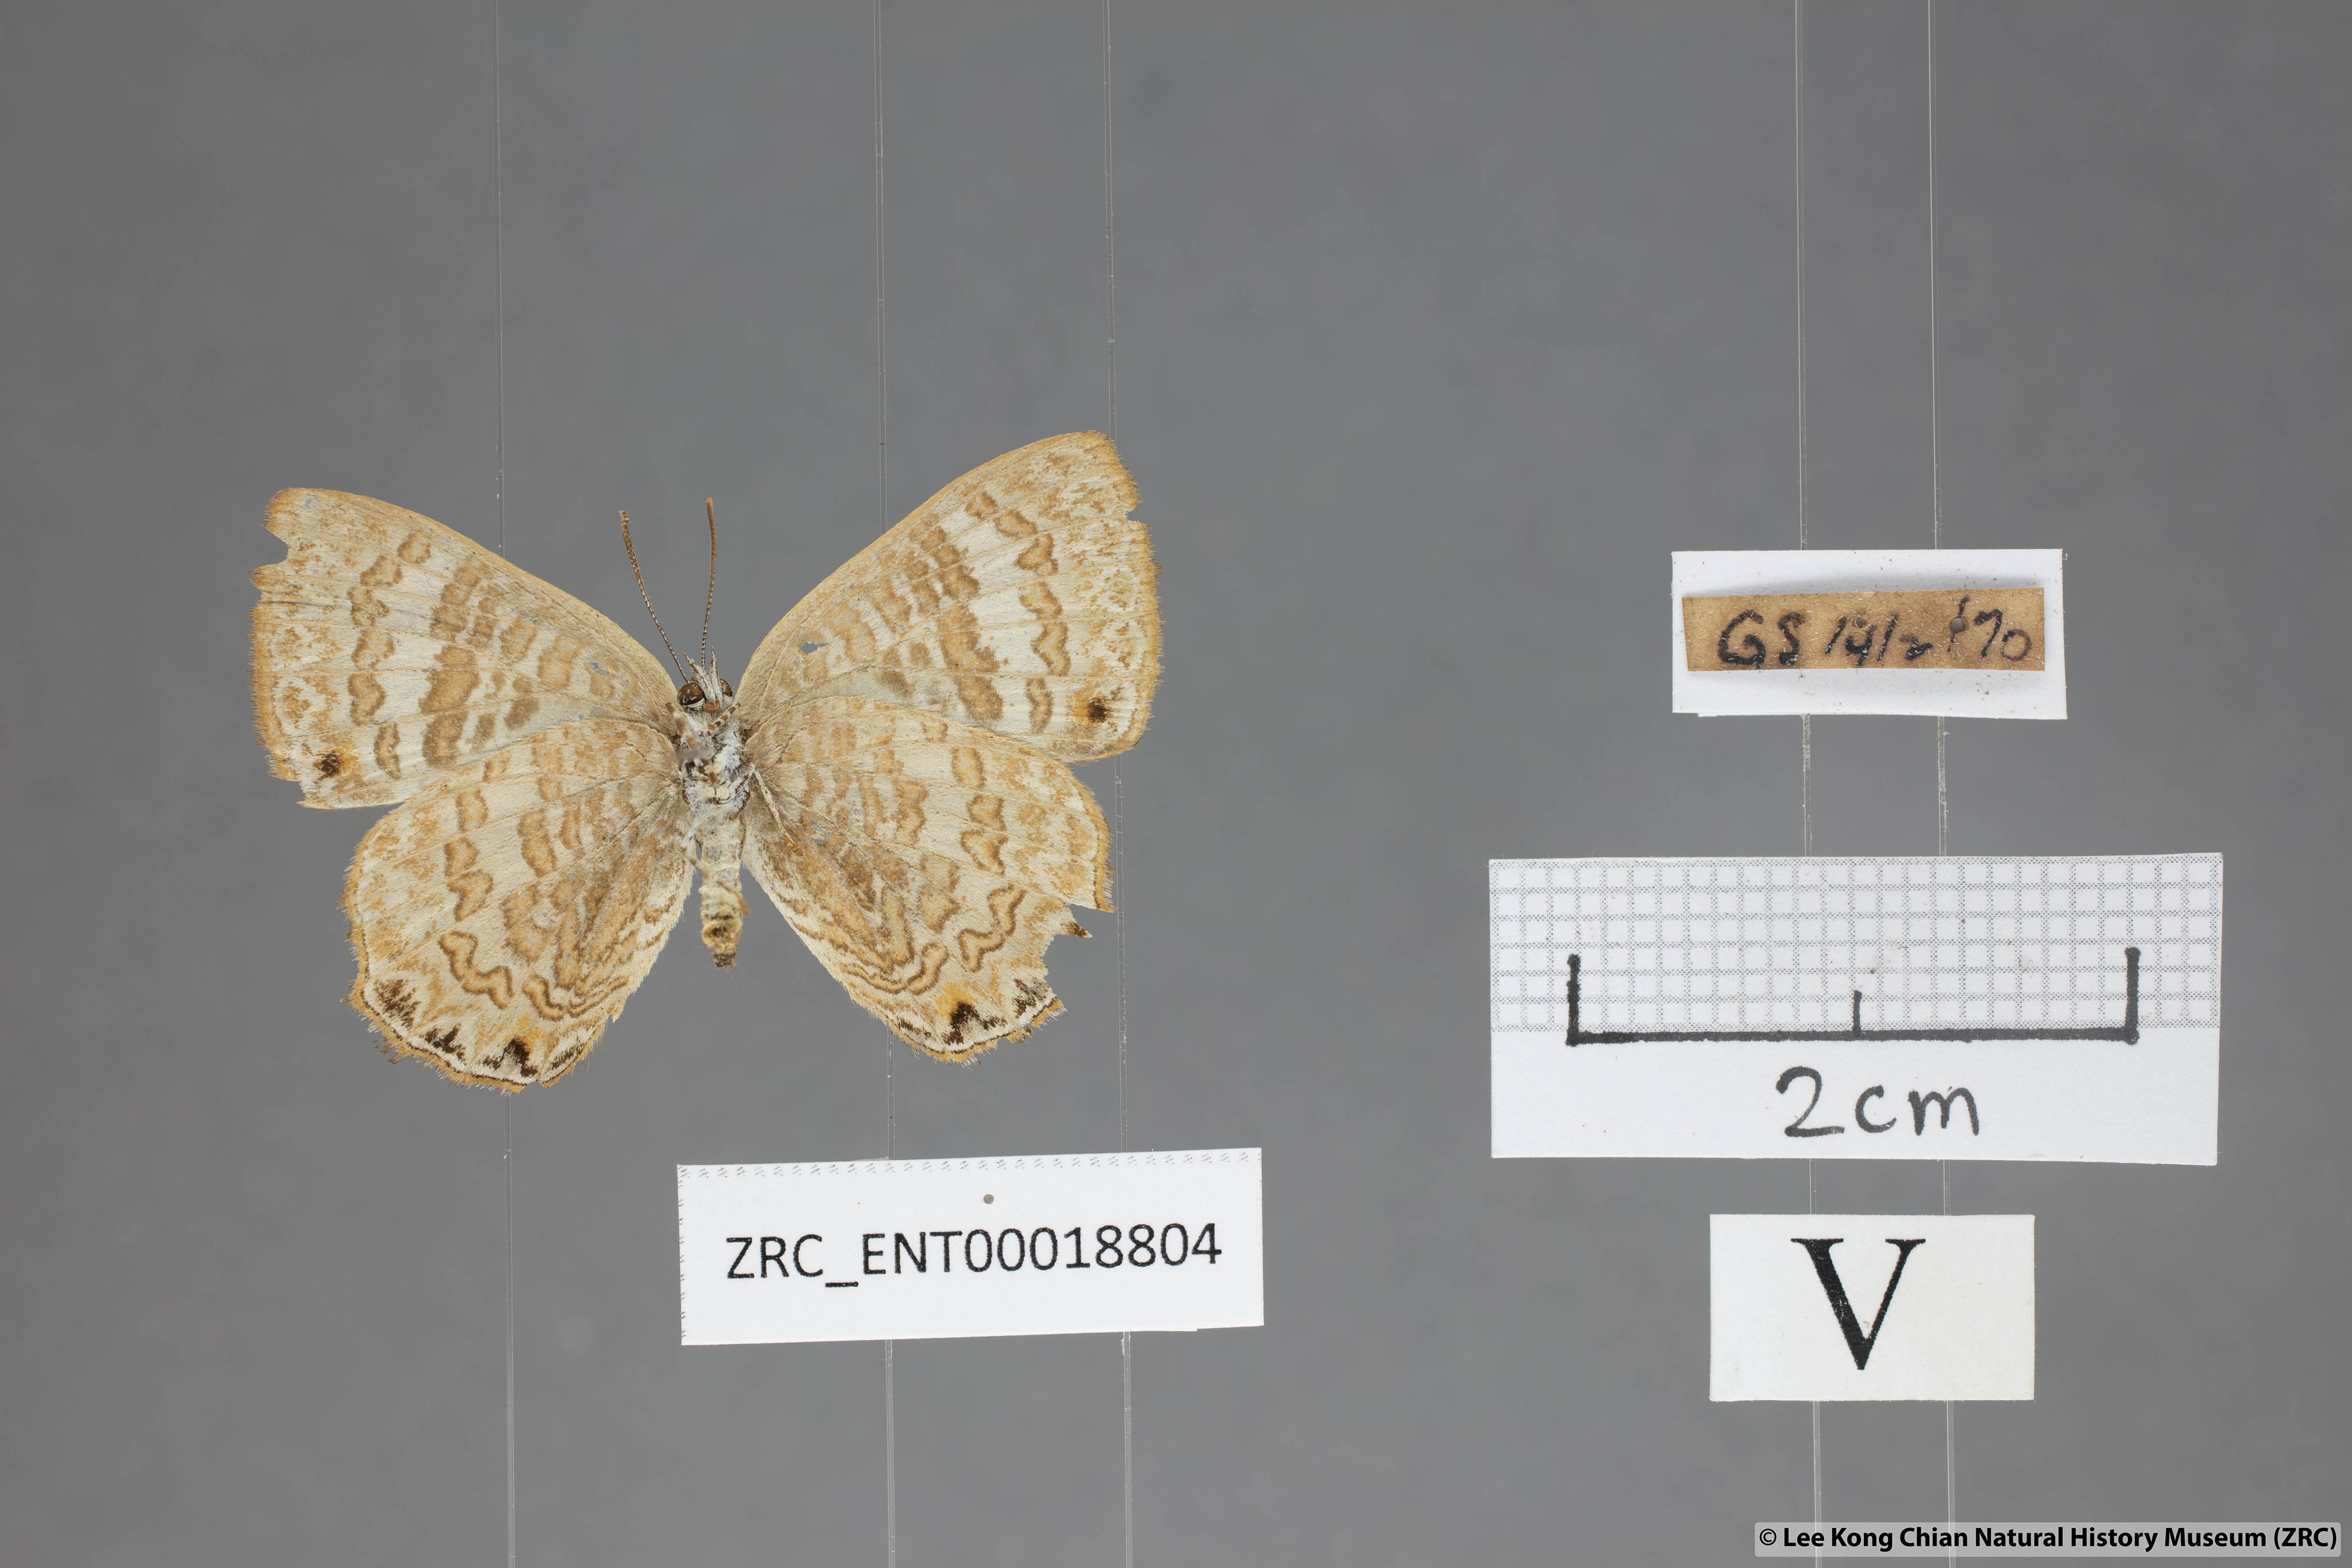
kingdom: Animalia
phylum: Arthropoda
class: Insecta
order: Lepidoptera
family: Lycaenidae
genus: Poritia
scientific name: Poritia pleurata
